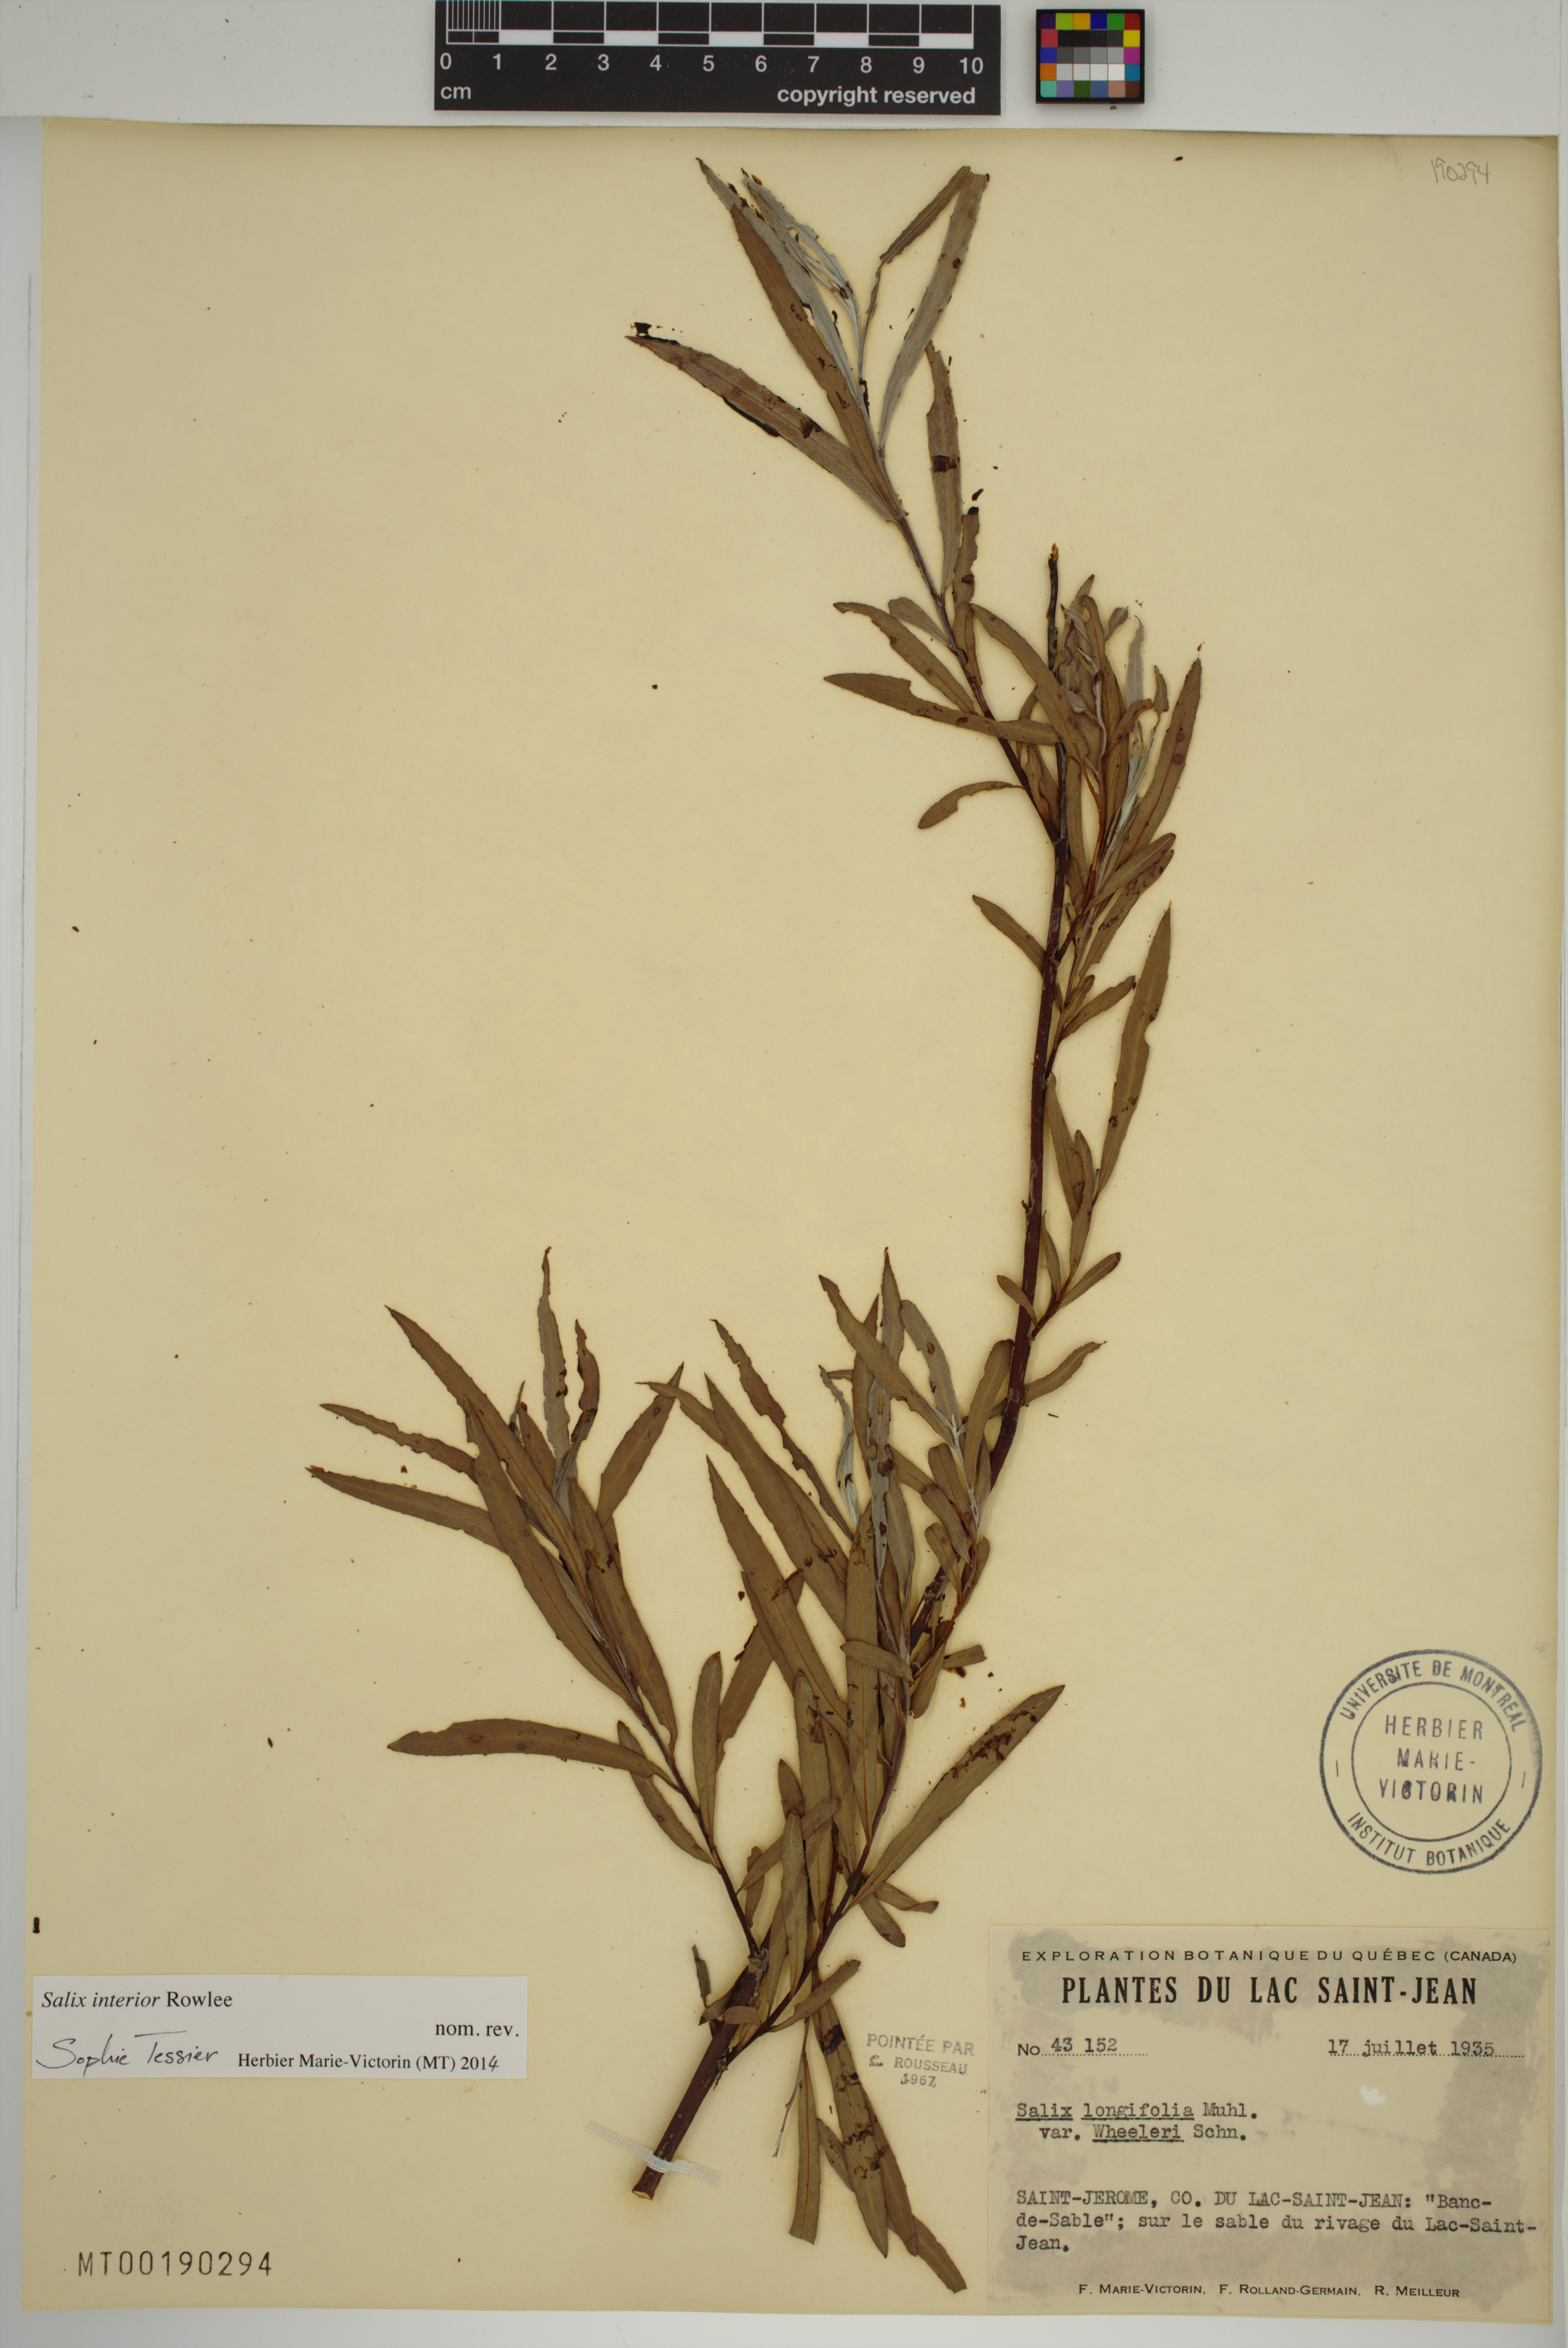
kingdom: Plantae
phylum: Tracheophyta
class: Magnoliopsida
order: Malpighiales
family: Salicaceae
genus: Salix
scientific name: Salix interior
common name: Sandbar willow
